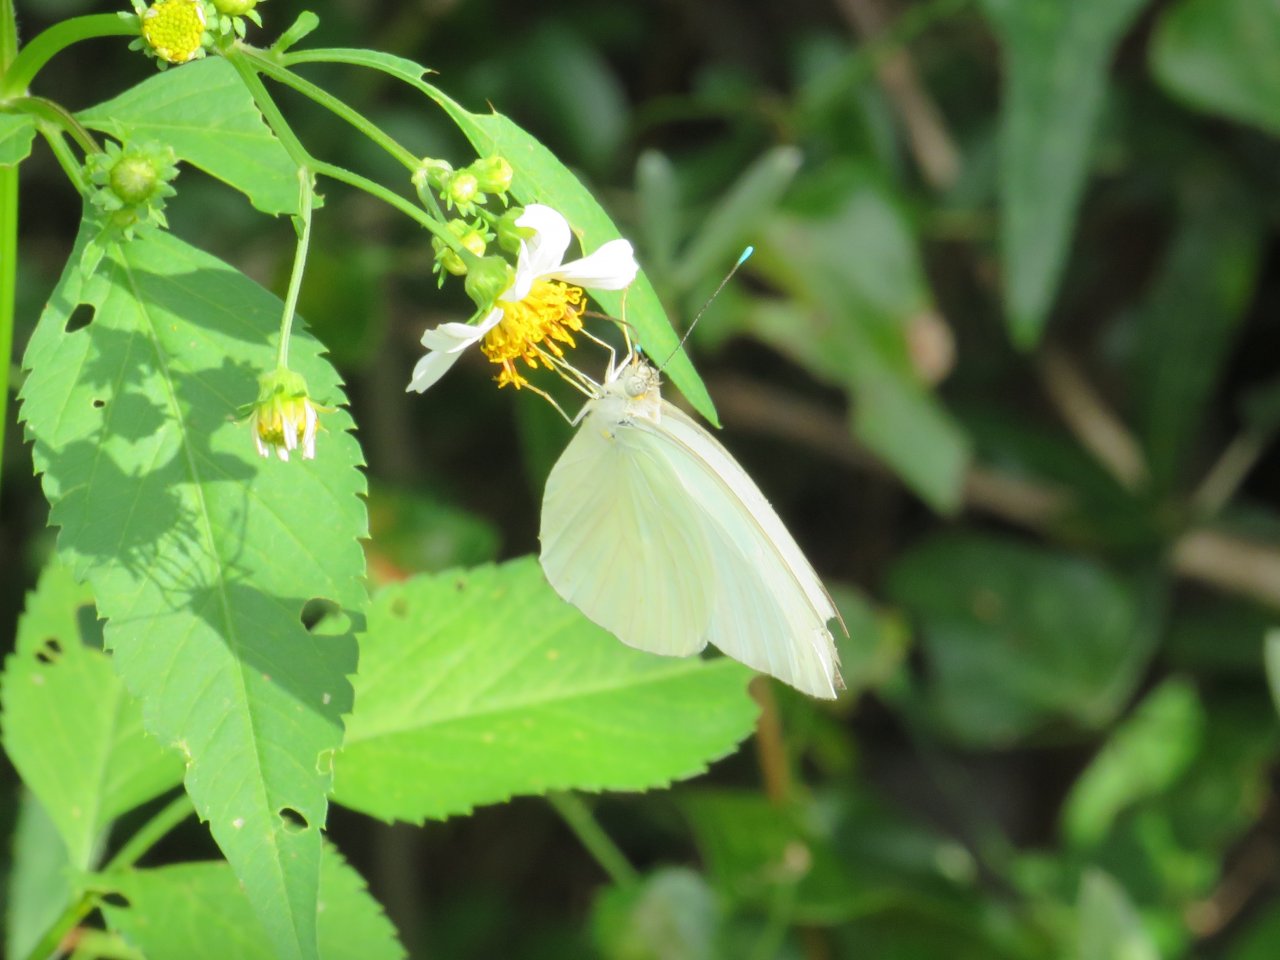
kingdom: Animalia
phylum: Arthropoda
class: Insecta
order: Lepidoptera
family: Pieridae
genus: Ascia
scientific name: Ascia monuste
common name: Great Southern White
